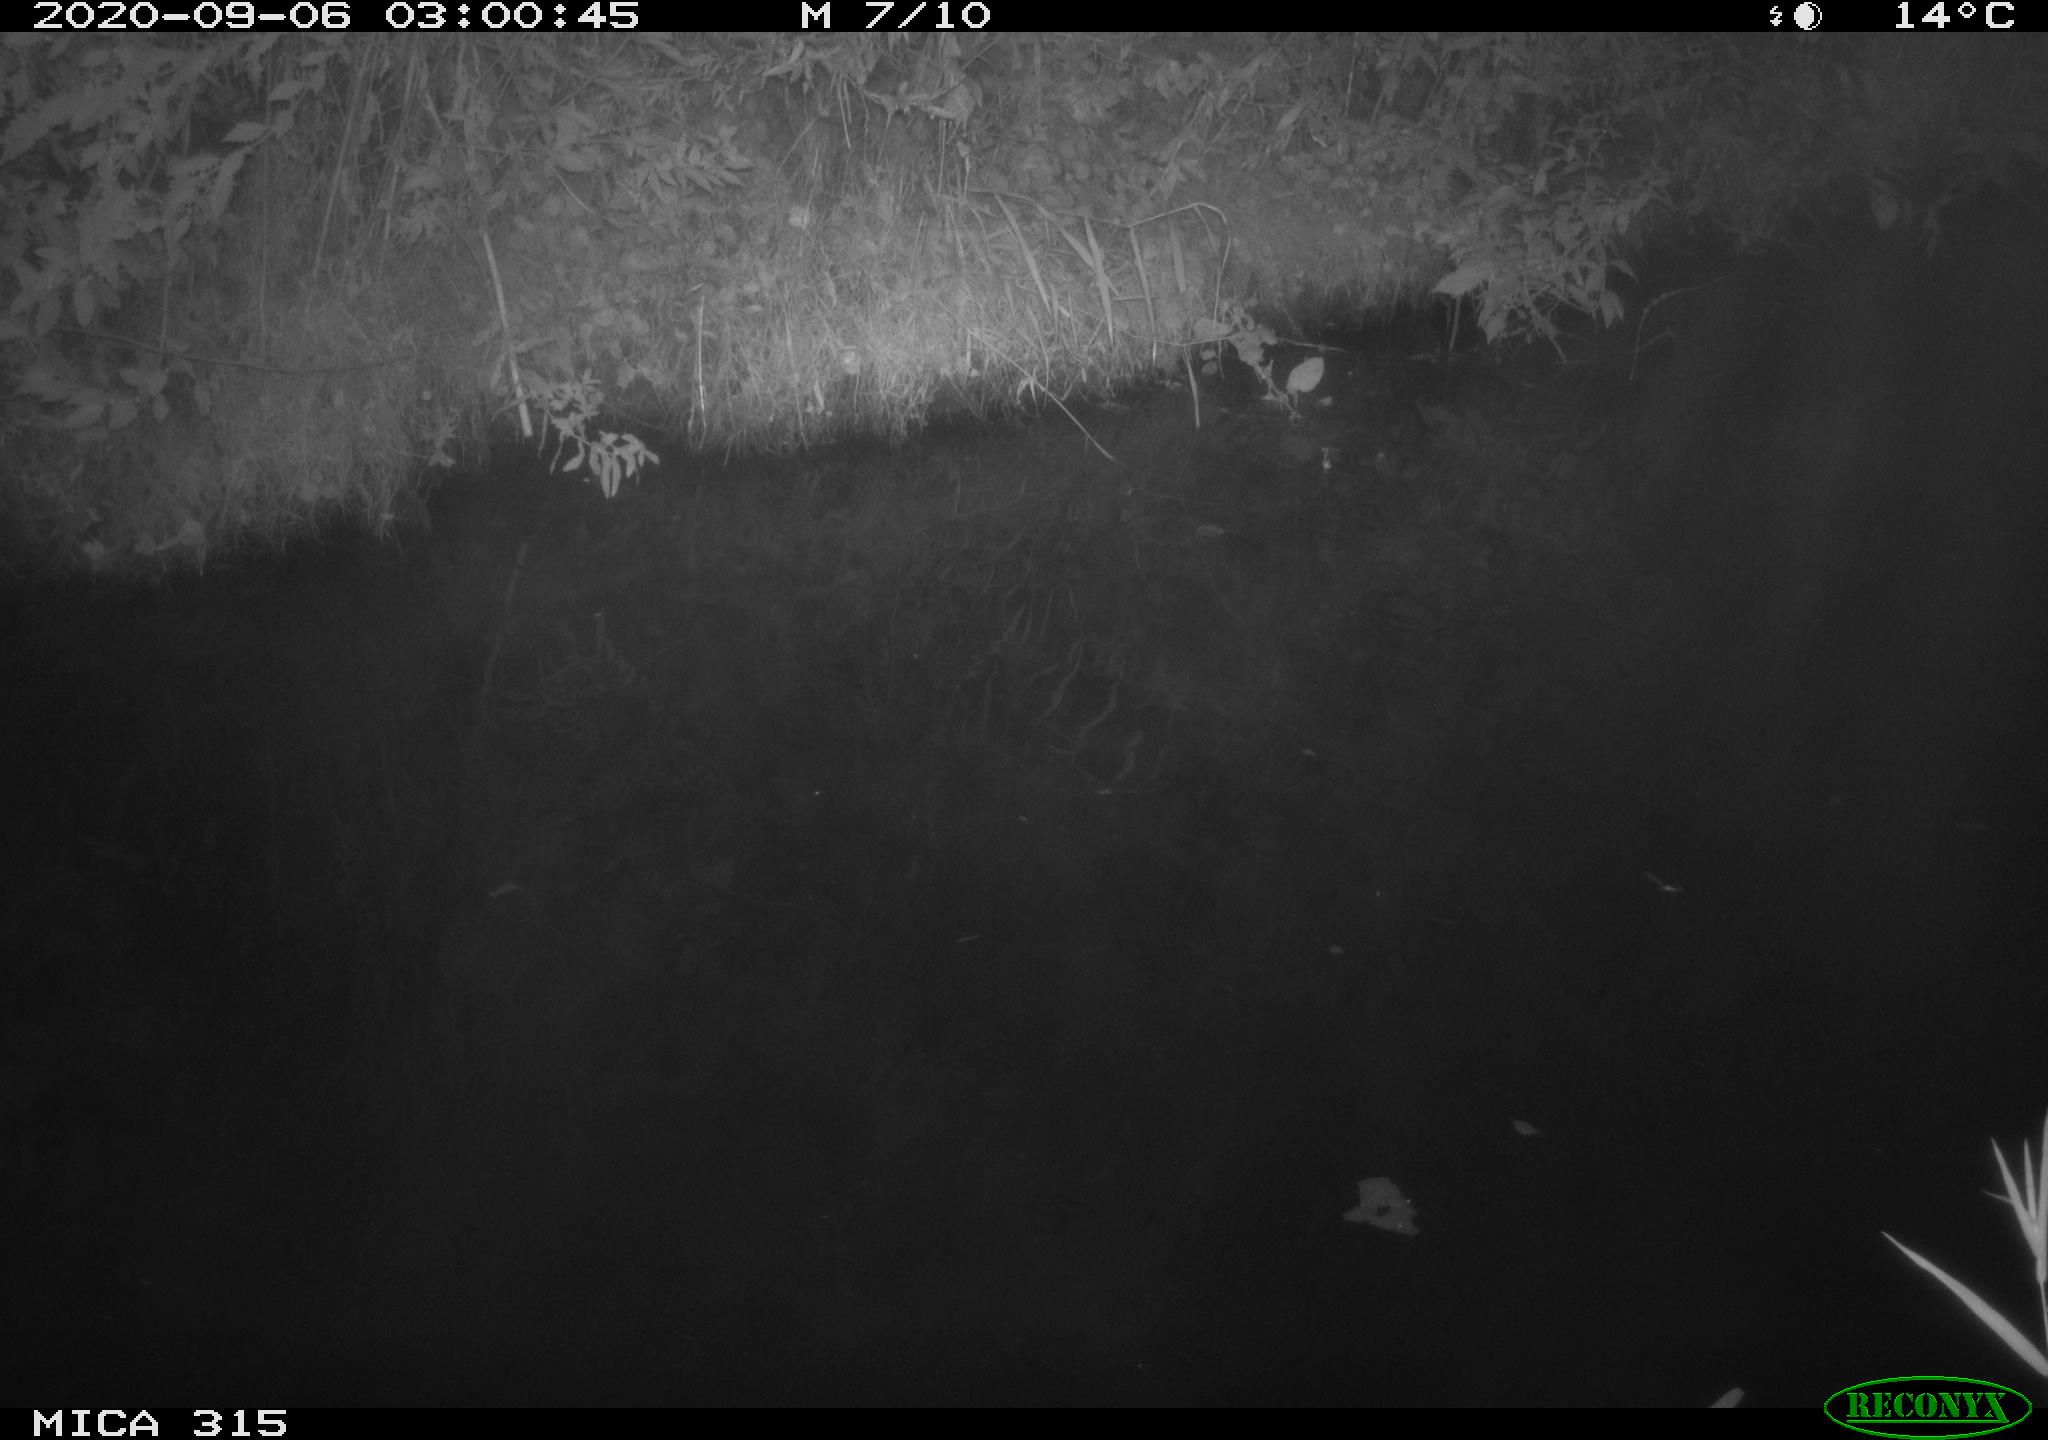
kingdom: Animalia
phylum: Chordata
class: Aves
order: Anseriformes
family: Anatidae
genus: Anas
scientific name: Anas platyrhynchos
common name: Mallard
